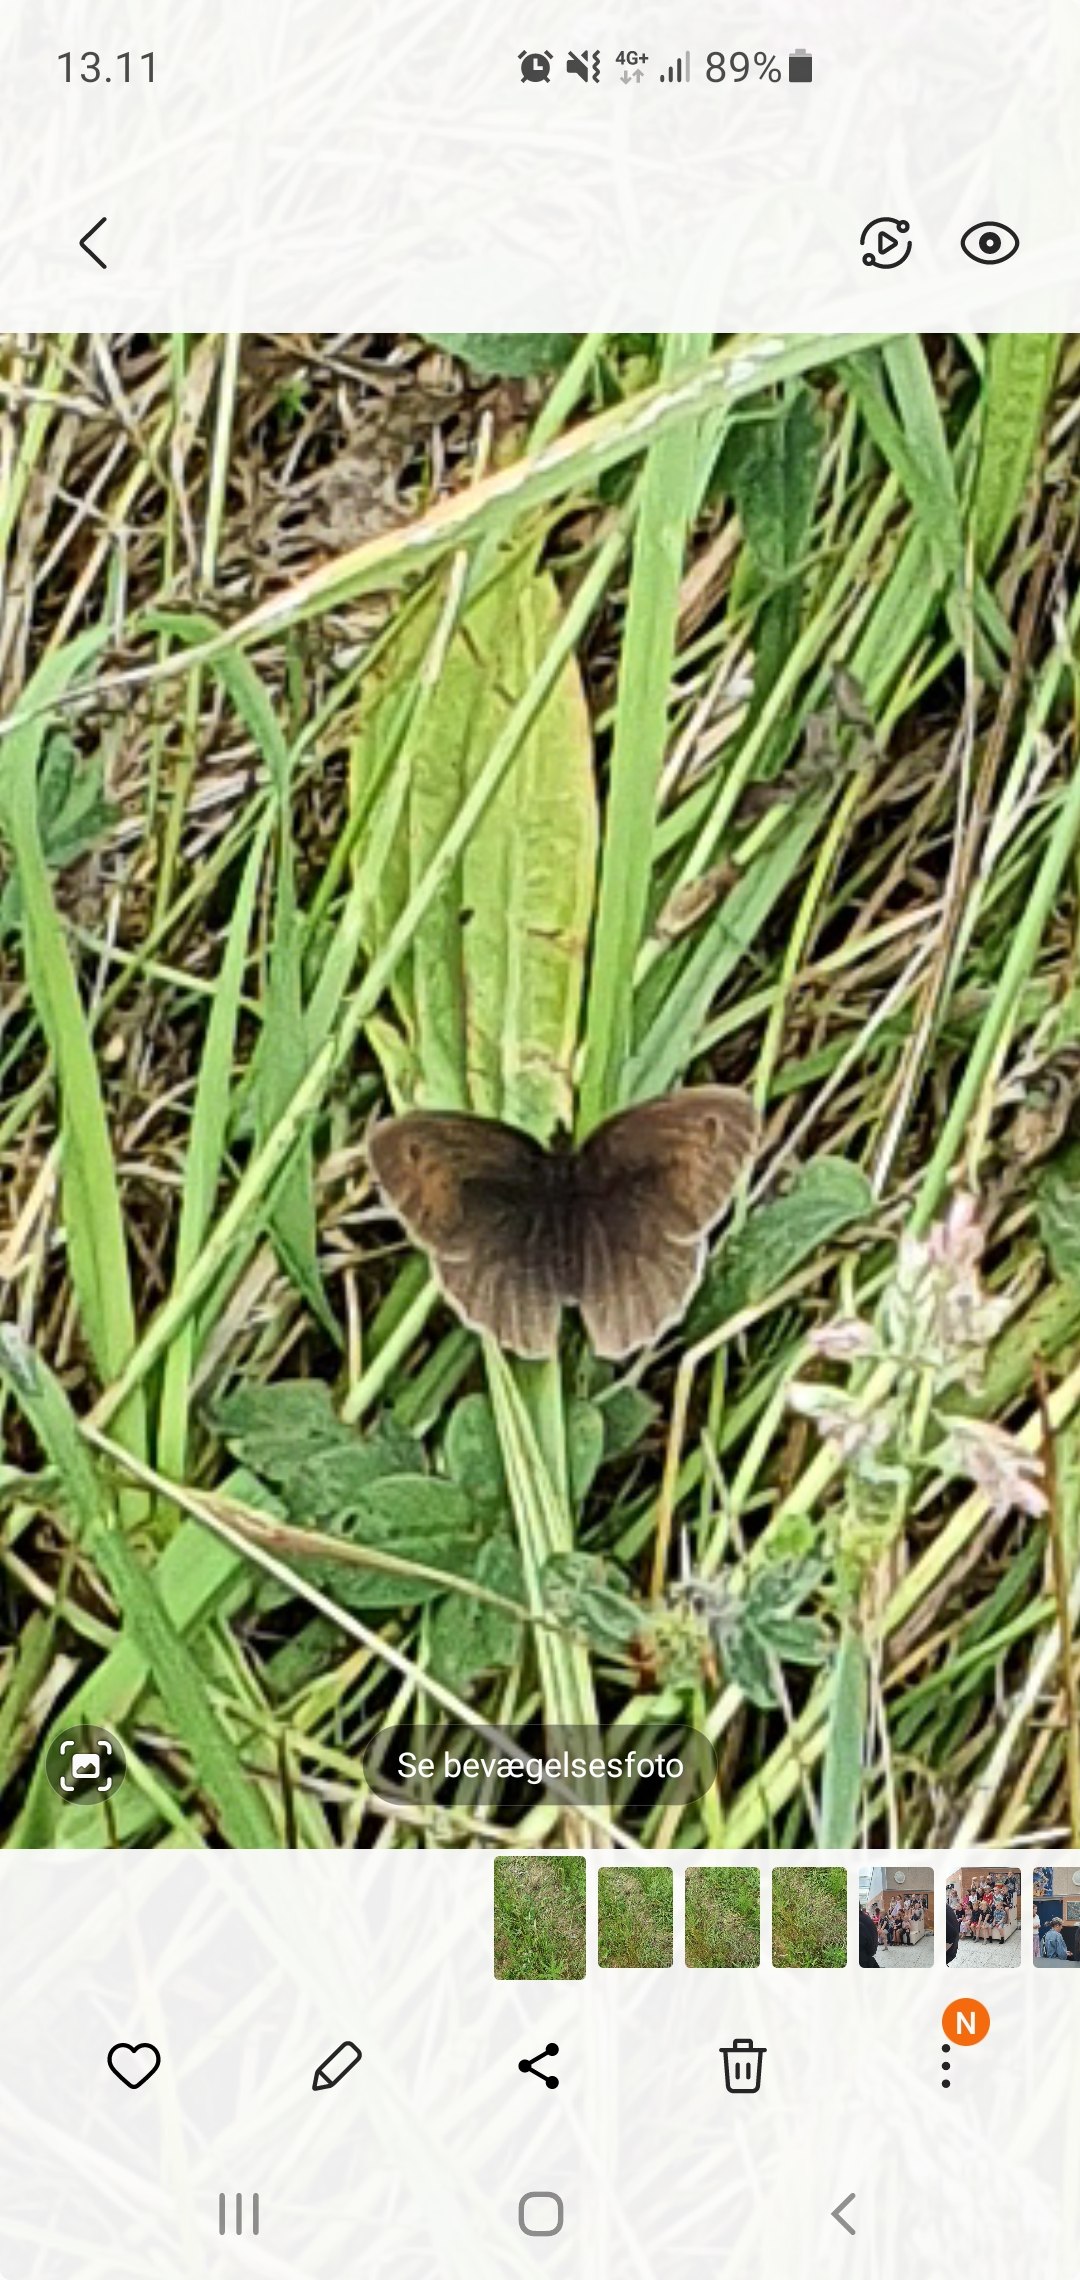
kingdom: Animalia
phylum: Arthropoda
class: Insecta
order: Lepidoptera
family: Nymphalidae
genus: Maniola
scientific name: Maniola jurtina
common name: Græsrandøje
